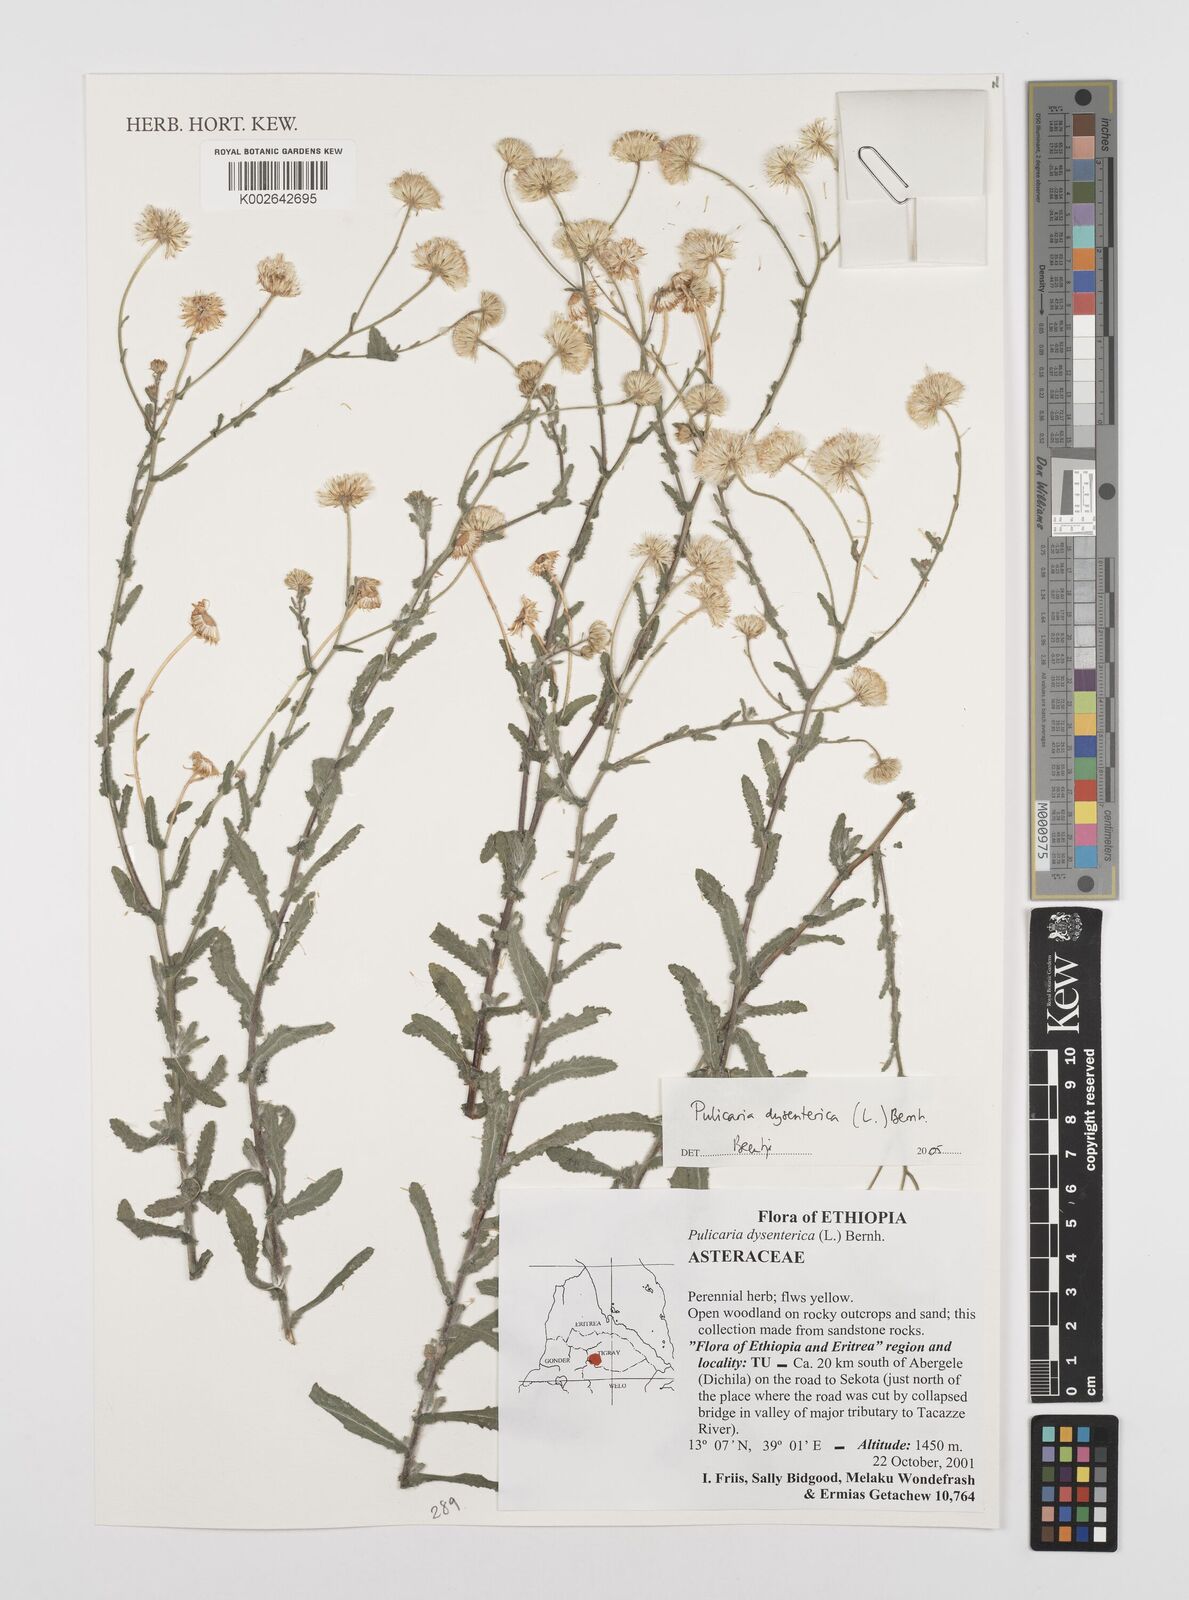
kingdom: Plantae
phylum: Tracheophyta
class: Magnoliopsida
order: Asterales
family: Asteraceae
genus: Pulicaria
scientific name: Pulicaria dysenterica
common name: Common fleabane
